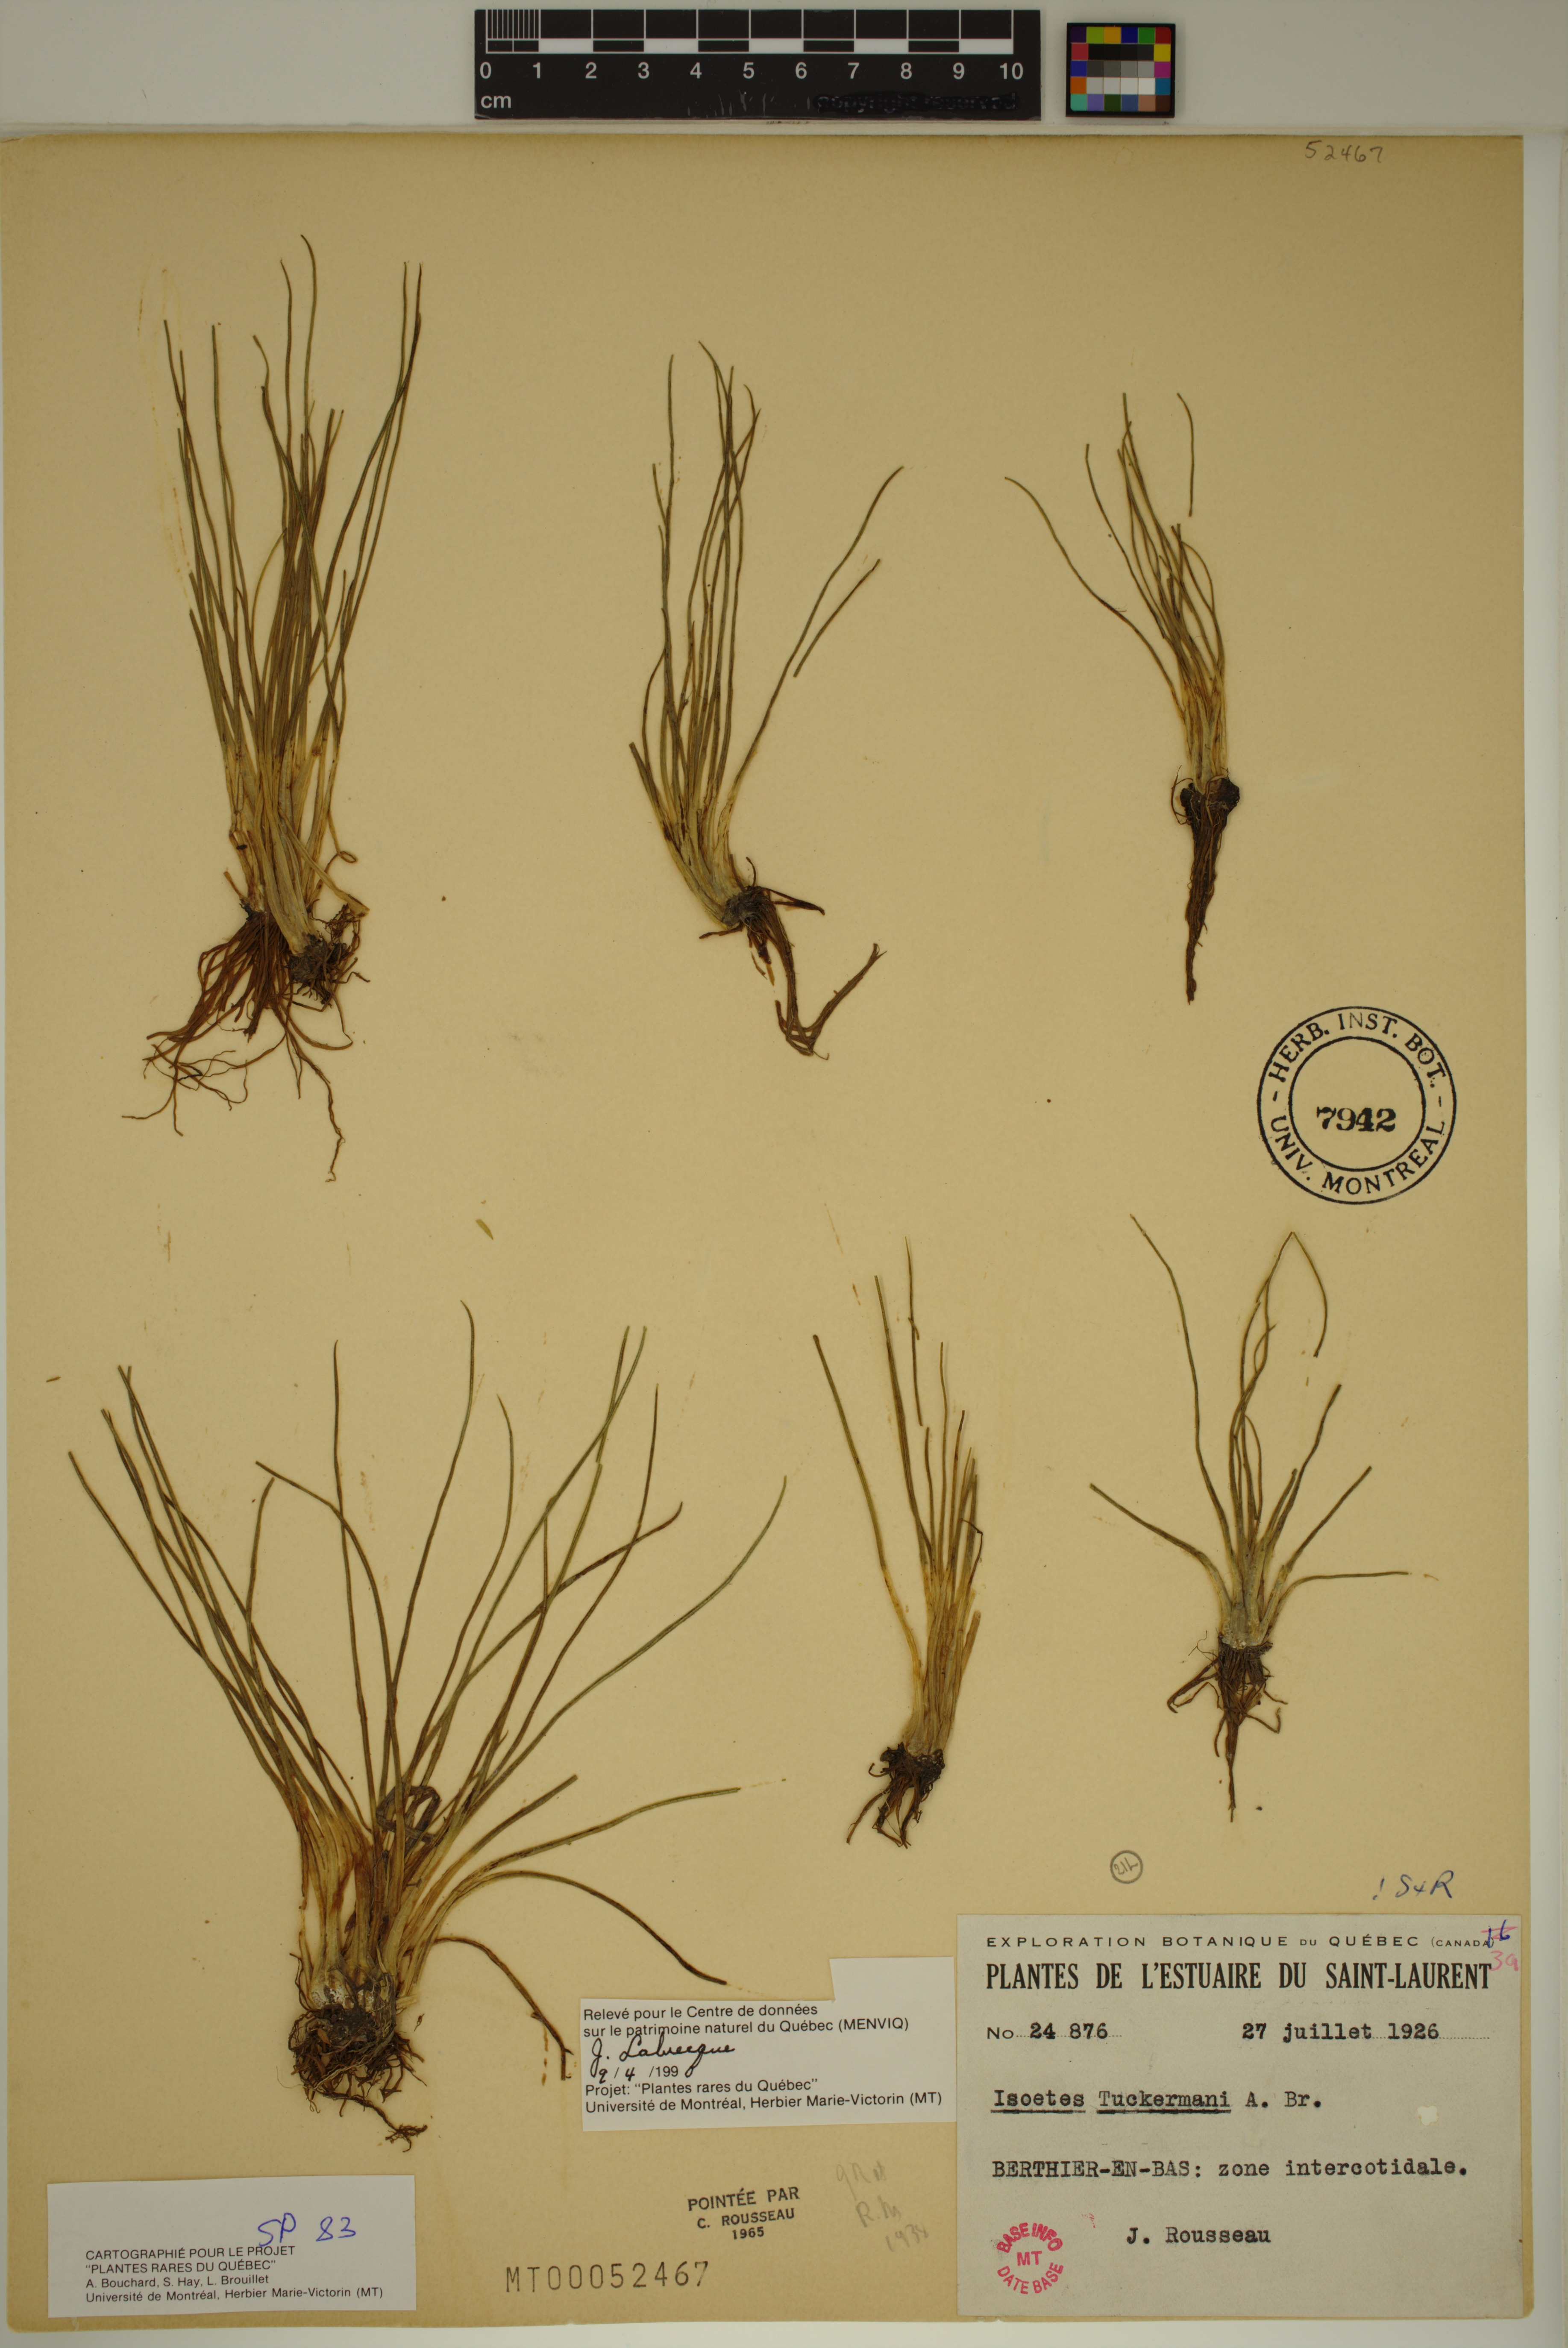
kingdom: Plantae
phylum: Tracheophyta
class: Lycopodiopsida
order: Isoetales
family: Isoetaceae
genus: Isoetes
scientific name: Isoetes laurentiana
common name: St. lawrence quillwort
